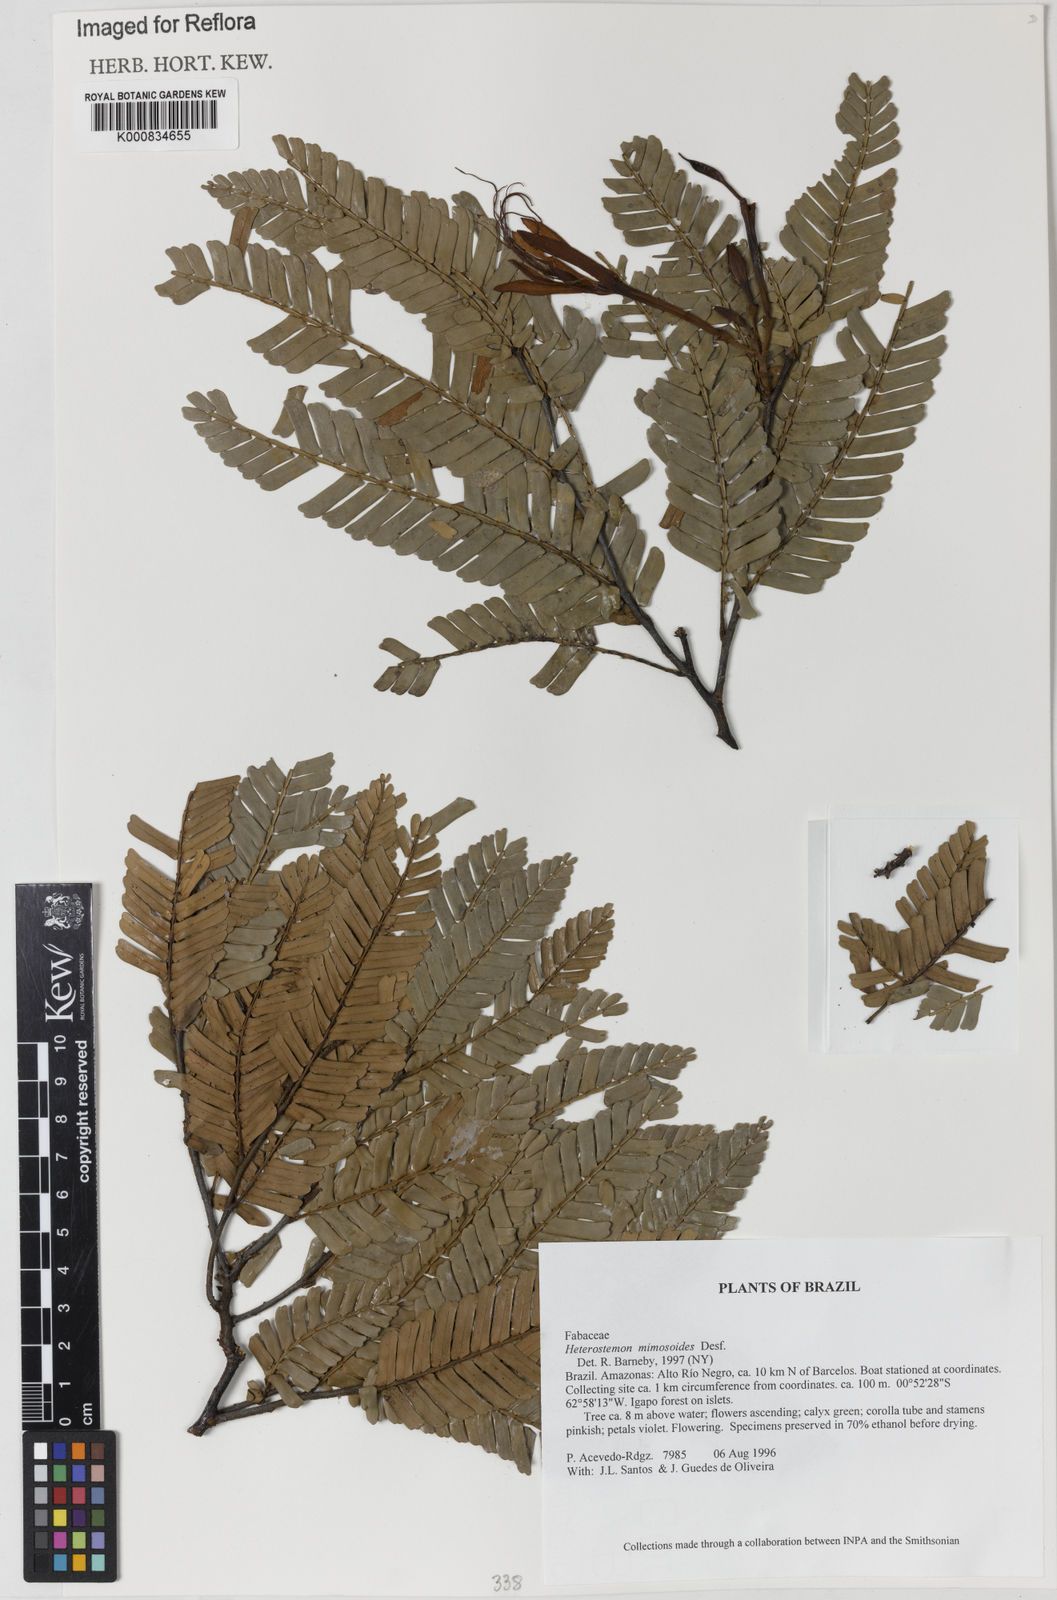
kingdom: Plantae
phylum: Tracheophyta
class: Magnoliopsida
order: Fabales
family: Fabaceae
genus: Heterostemon
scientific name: Heterostemon mimosoides
